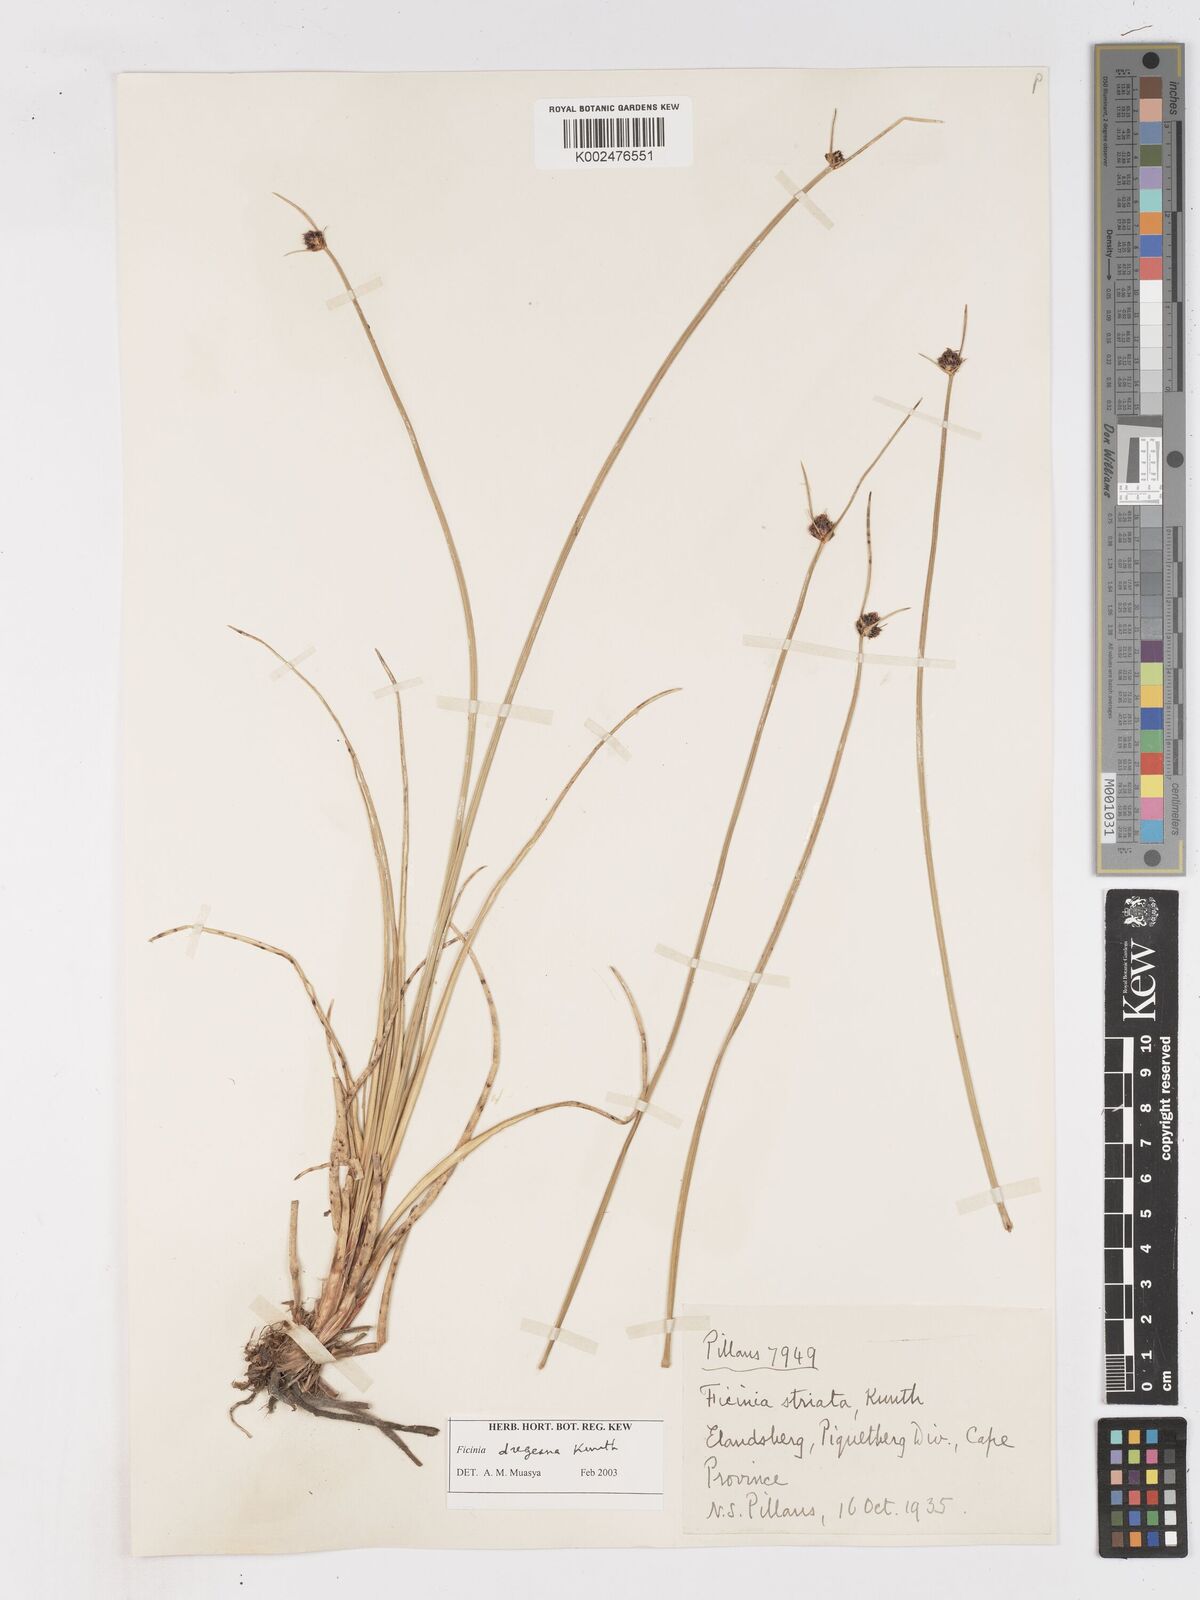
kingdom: Plantae
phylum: Tracheophyta
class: Liliopsida
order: Poales
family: Cyperaceae
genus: Ficinia
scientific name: Ficinia
